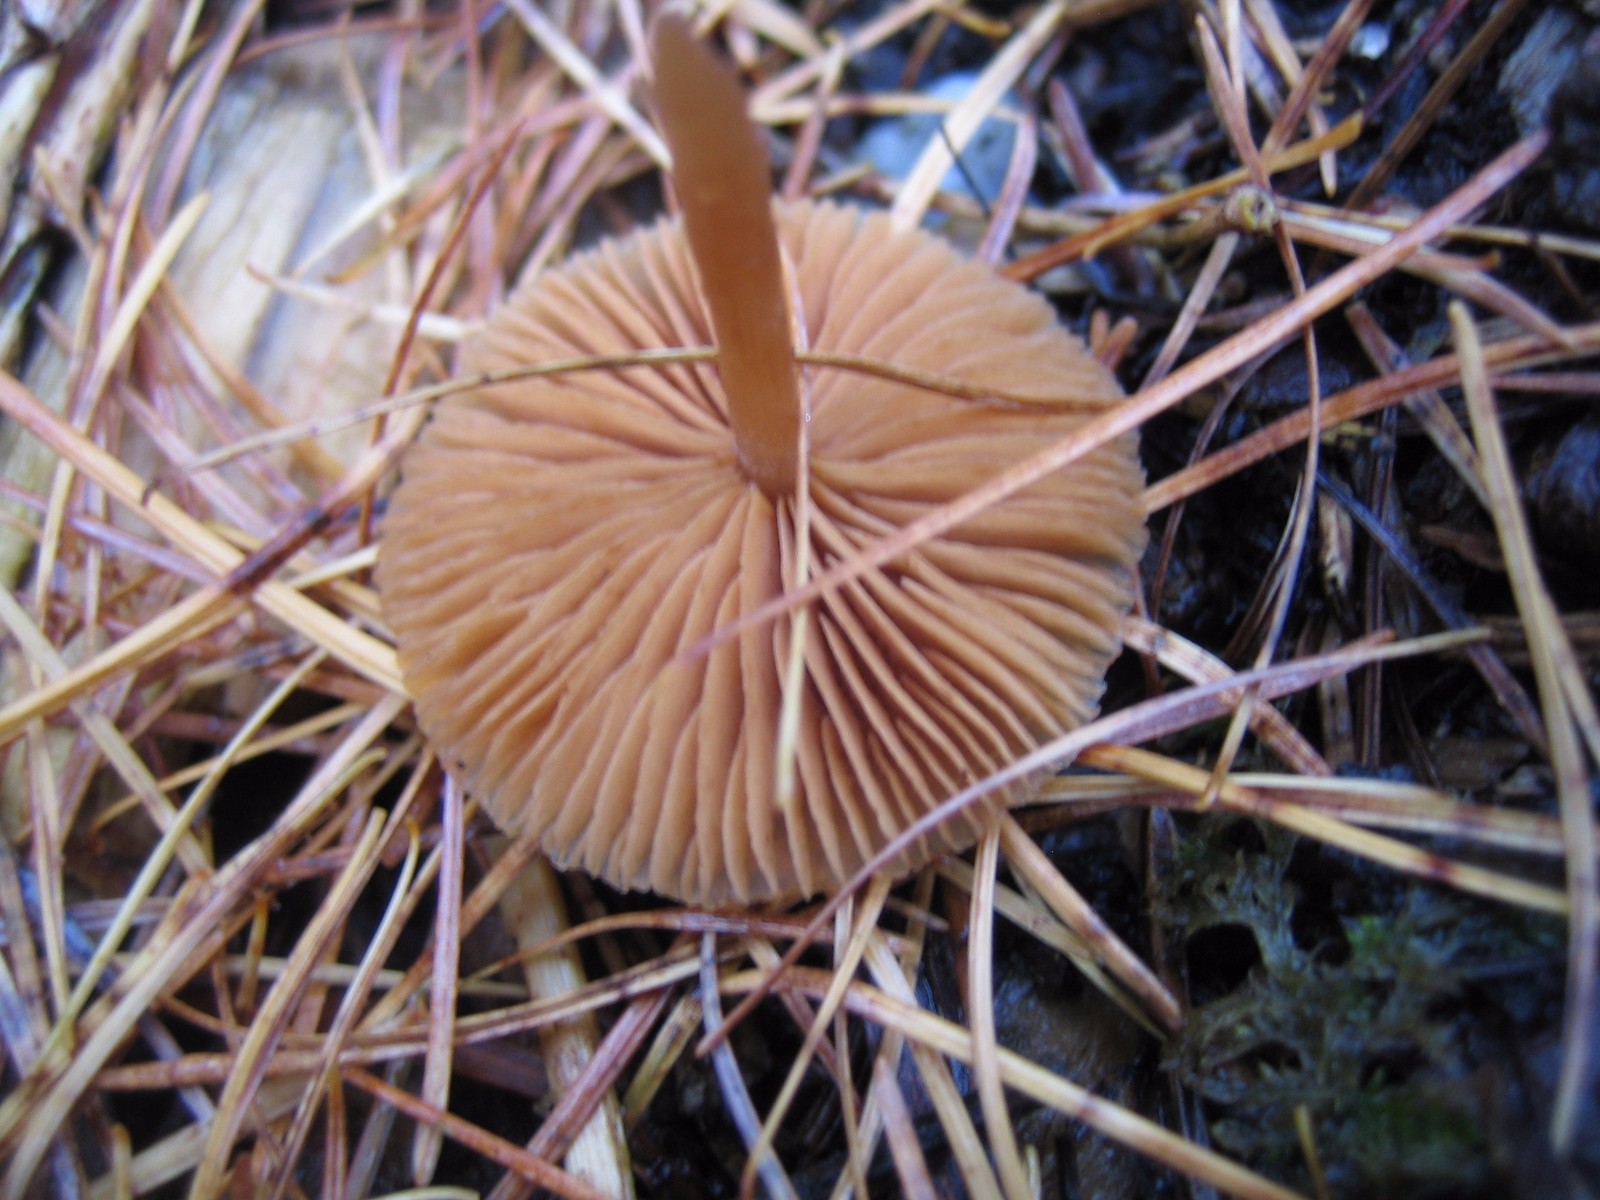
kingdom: Fungi
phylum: Basidiomycota
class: Agaricomycetes
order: Agaricales
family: Tubariaceae
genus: Tubaria
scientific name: Tubaria
